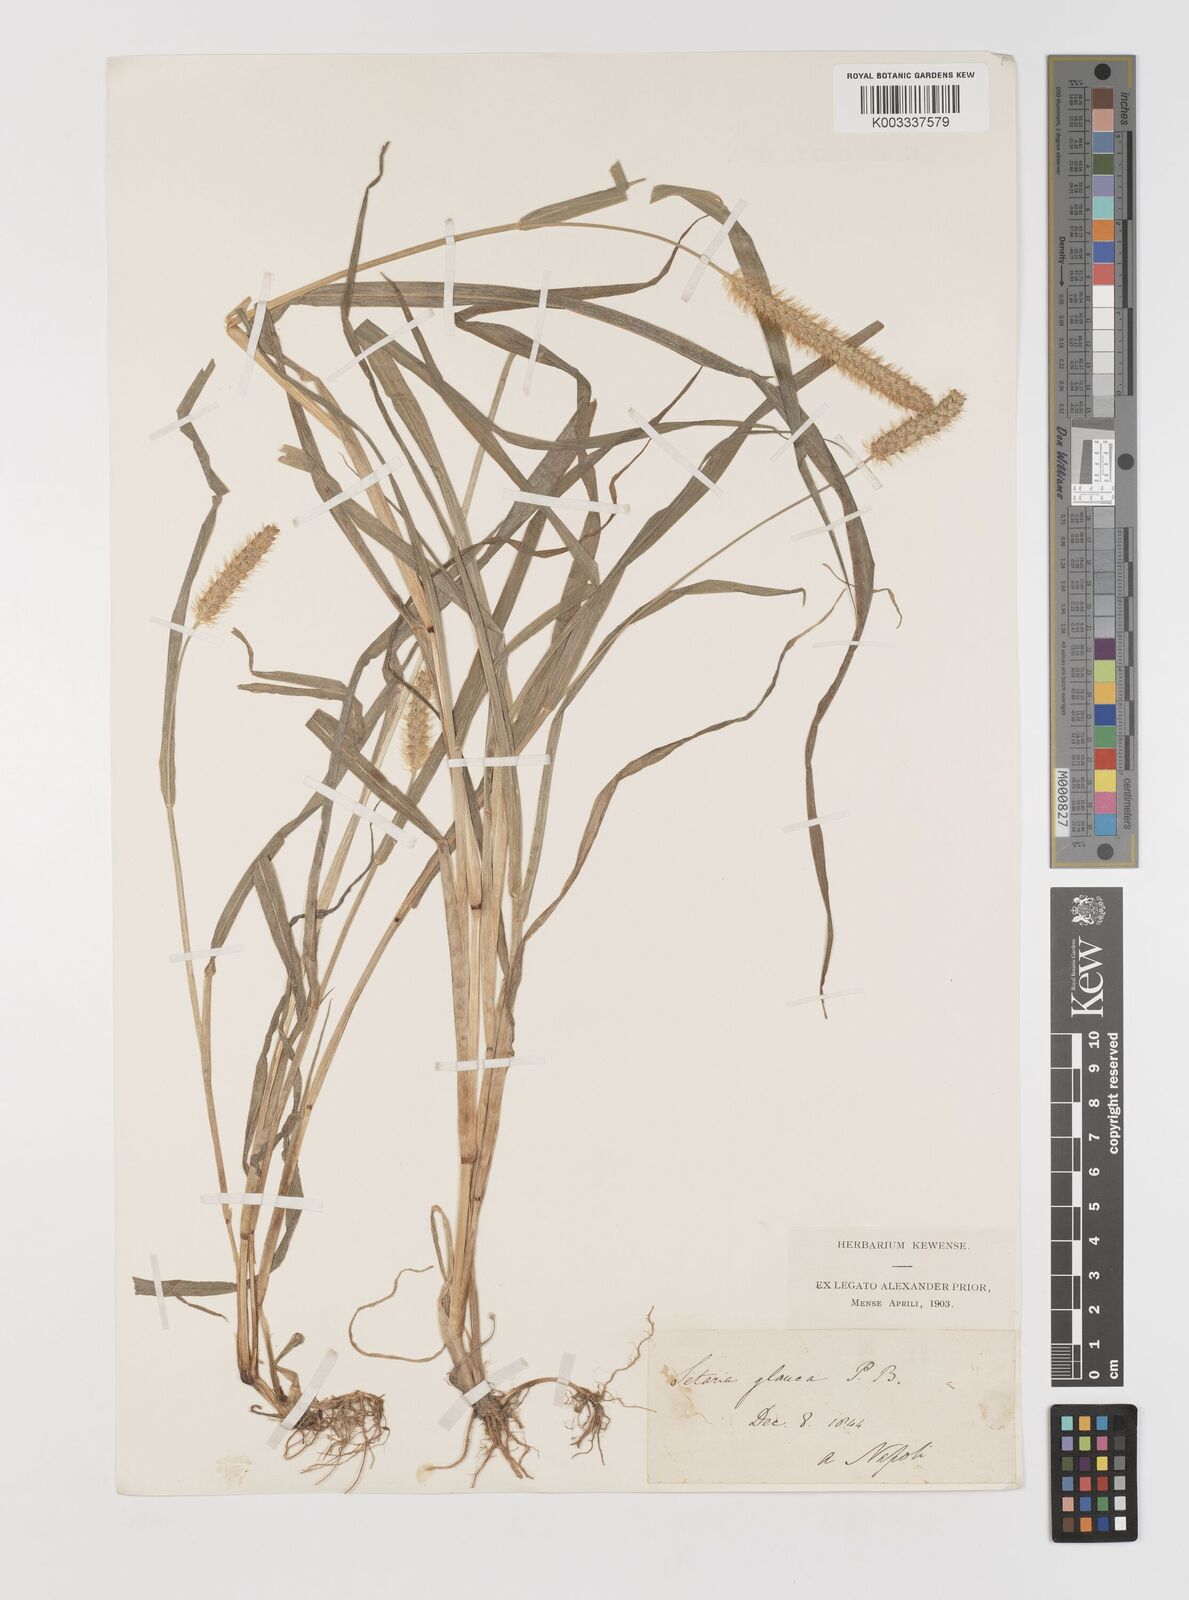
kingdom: Plantae
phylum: Tracheophyta
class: Liliopsida
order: Poales
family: Poaceae
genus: Setaria
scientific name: Setaria pumila
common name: Yellow bristle-grass
